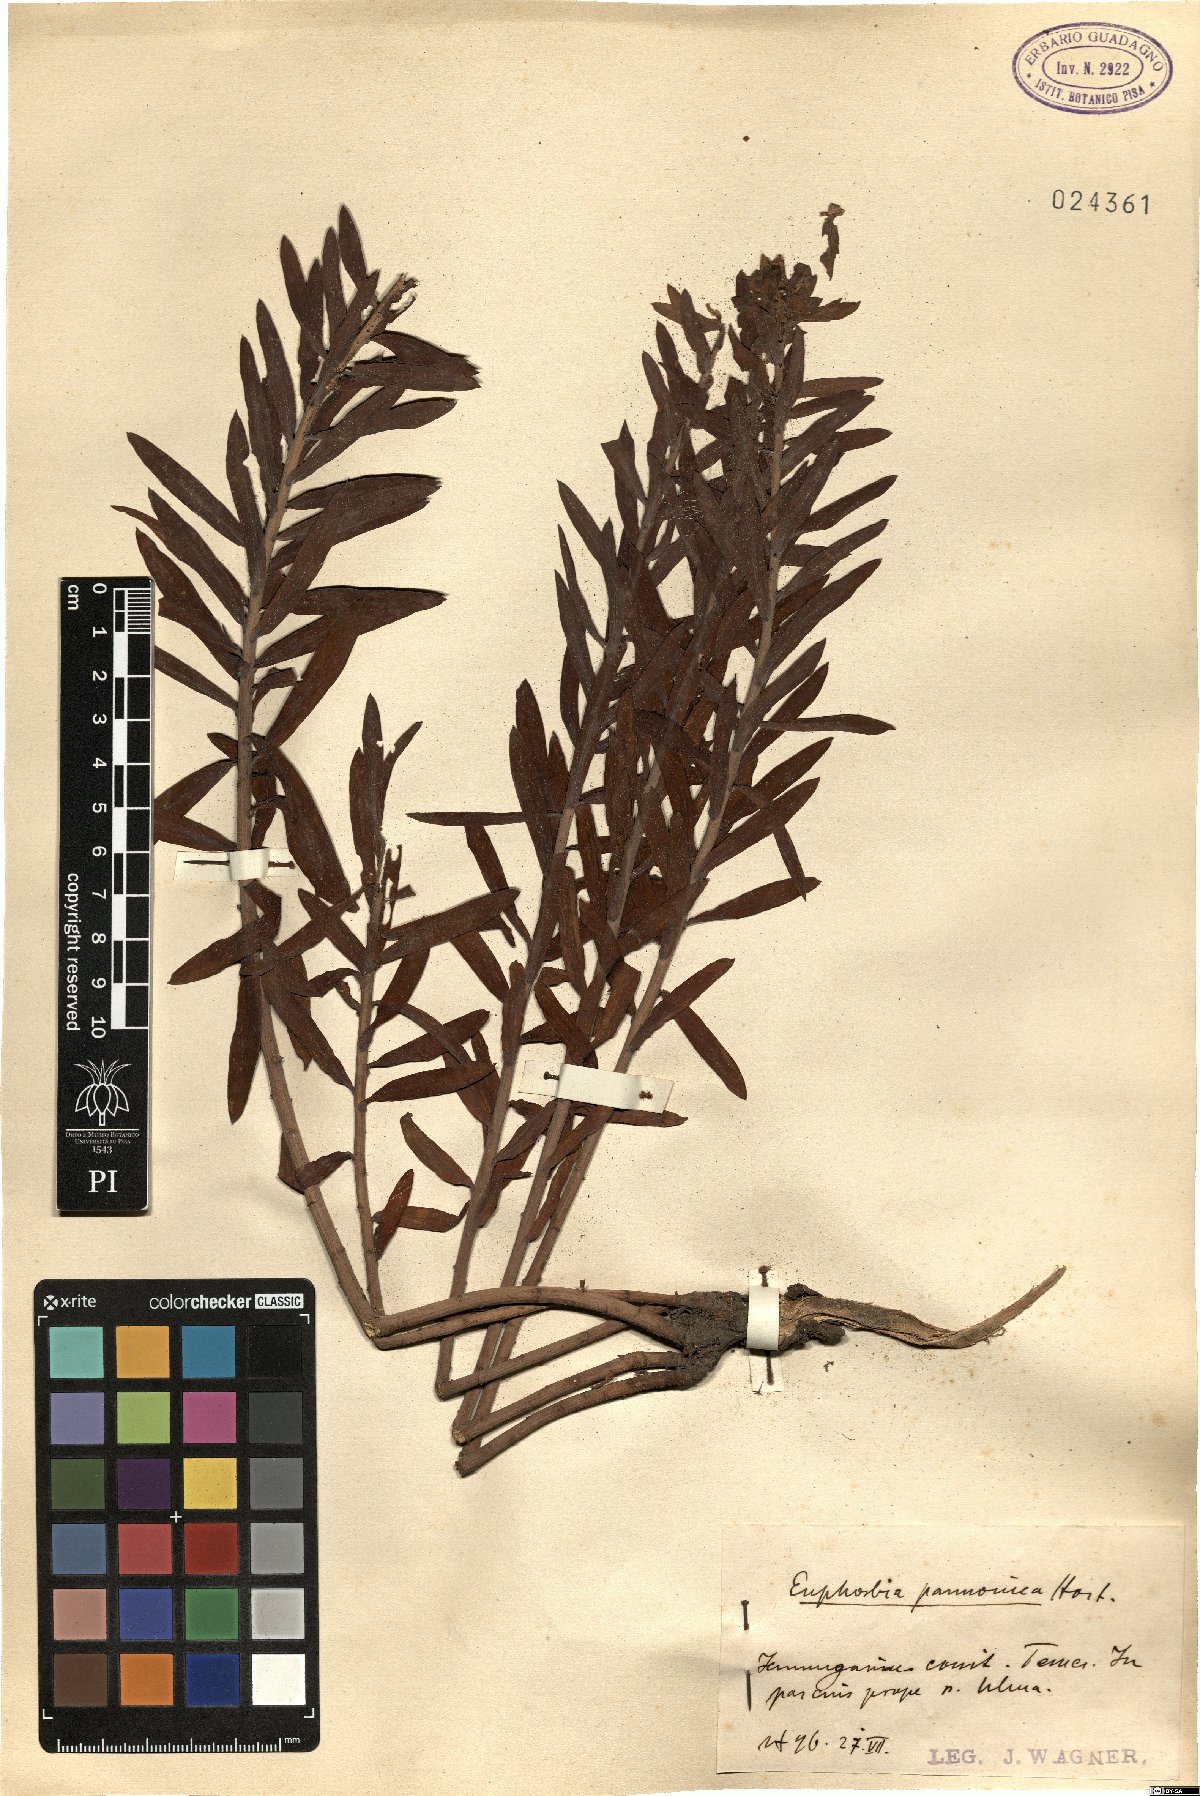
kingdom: Plantae
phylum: Tracheophyta
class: Magnoliopsida
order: Malpighiales
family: Euphorbiaceae
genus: Euphorbia
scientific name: Euphorbia pannonica
